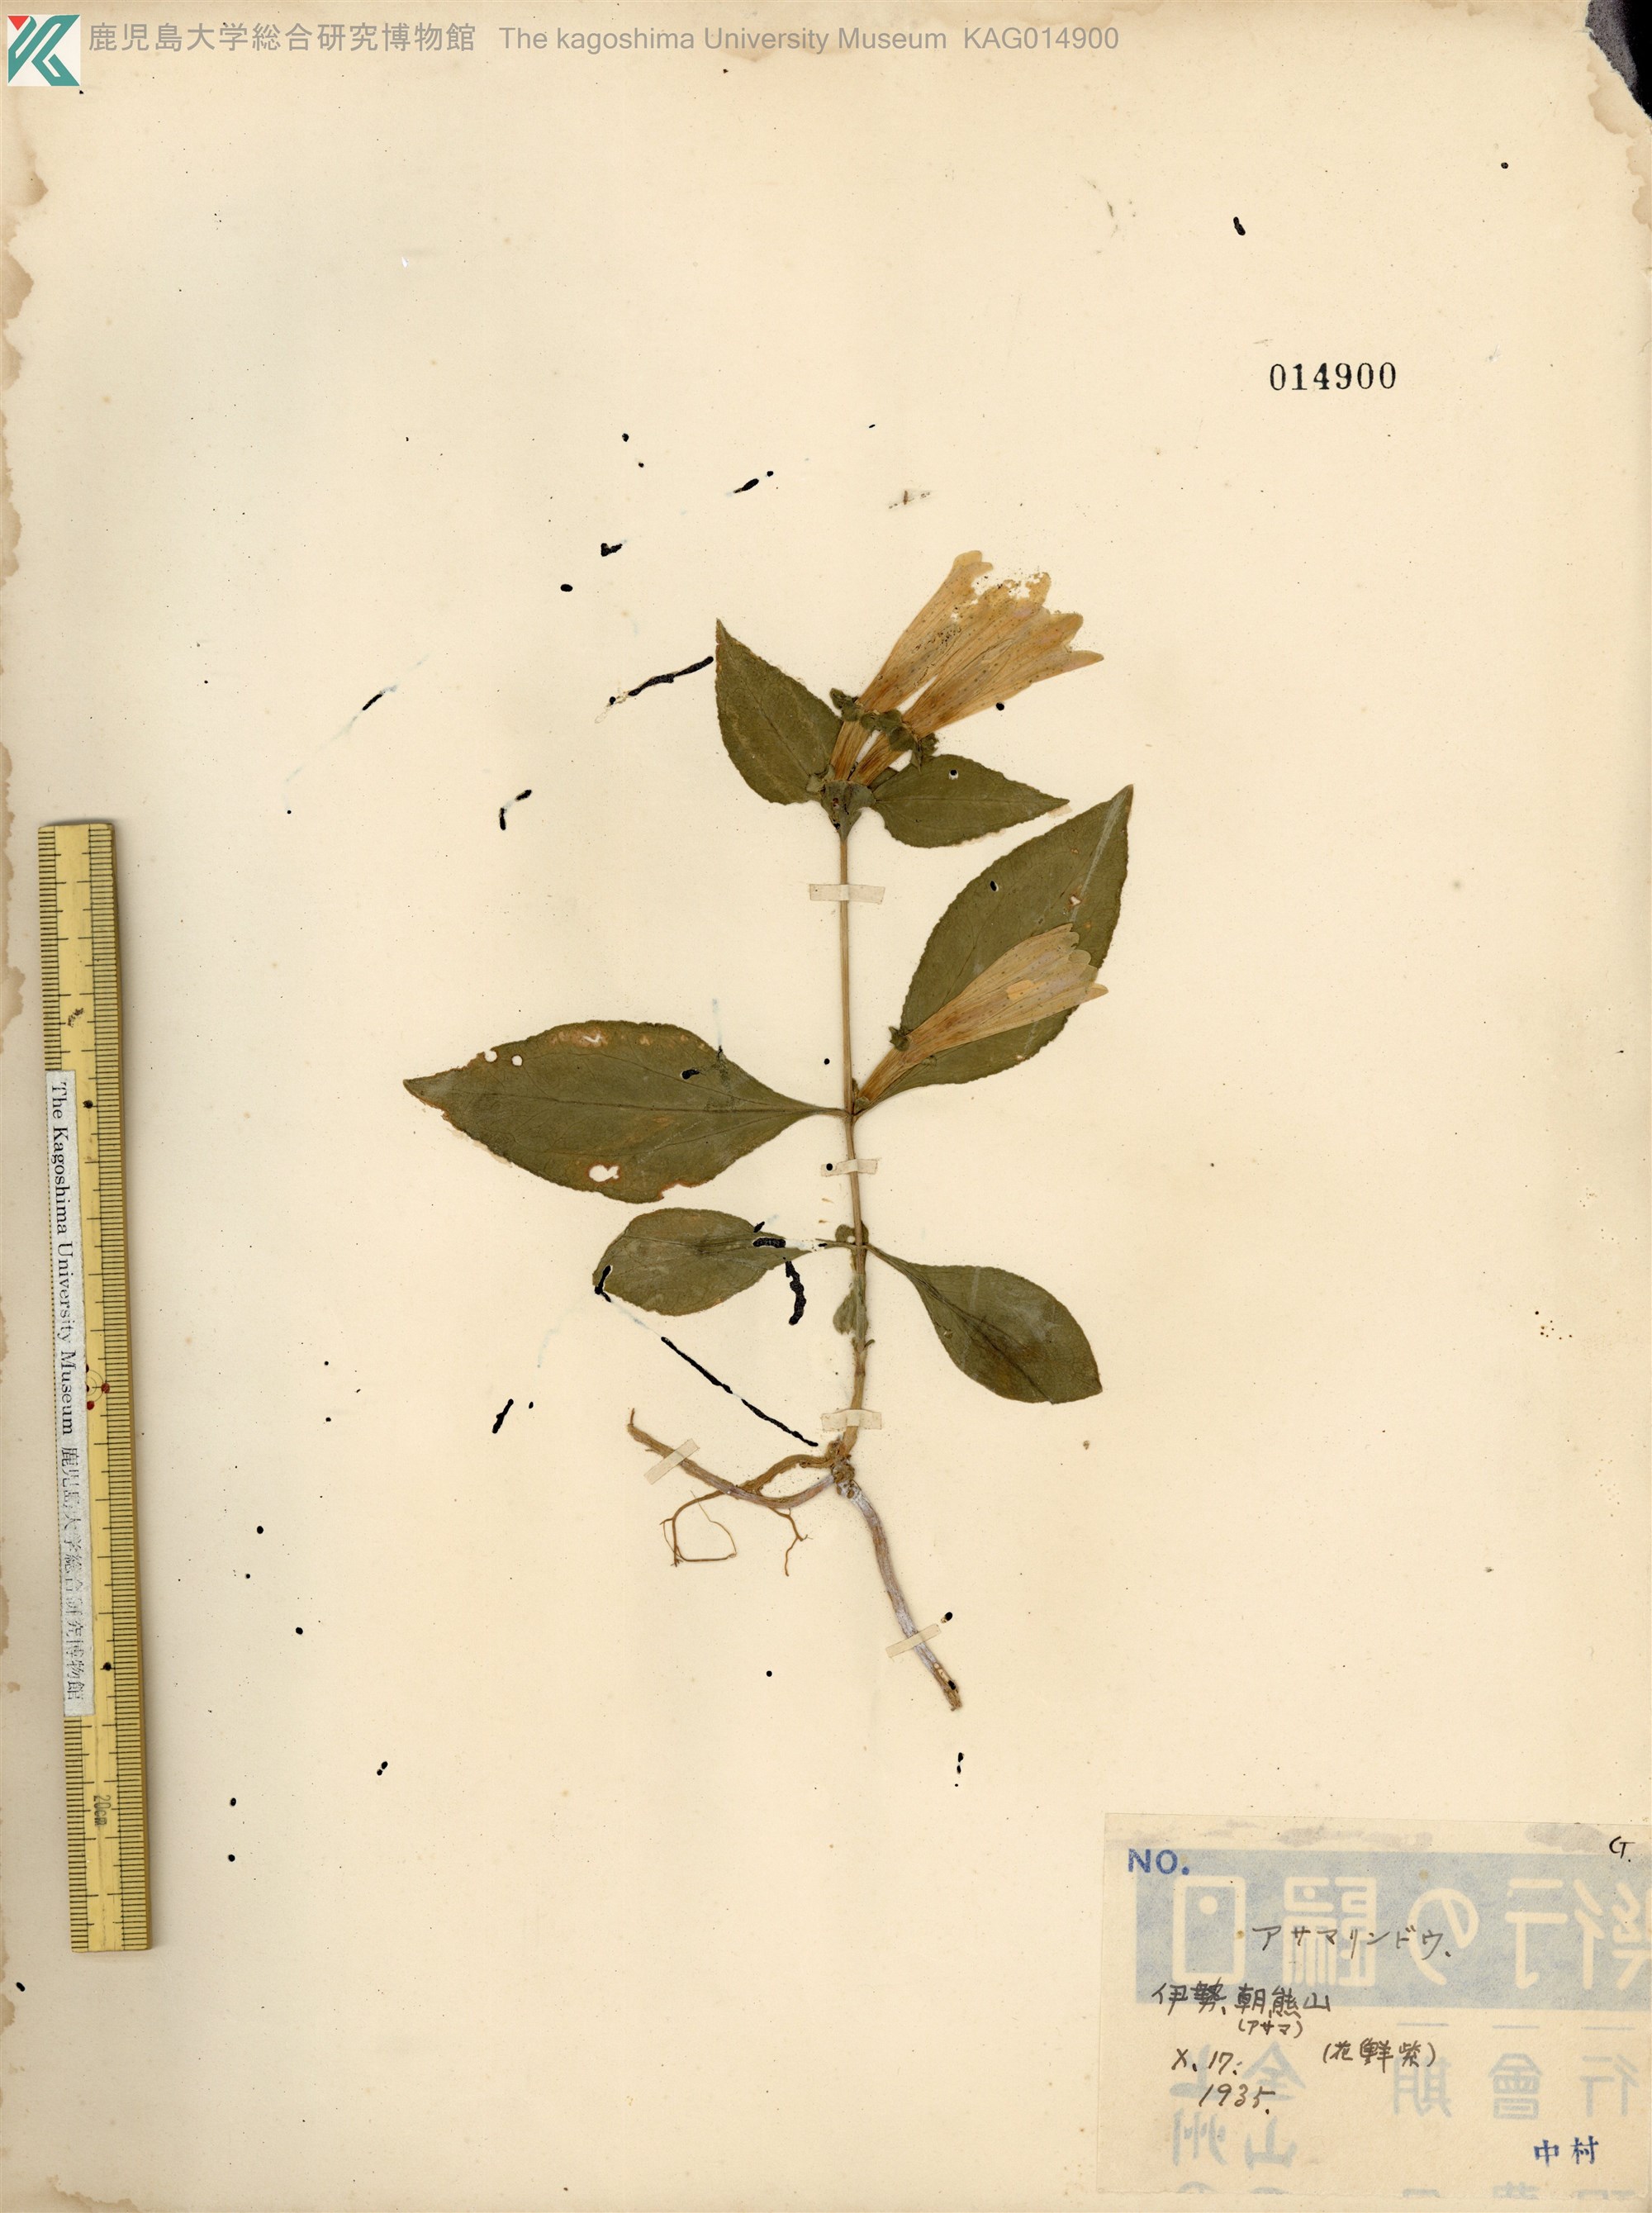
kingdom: Plantae
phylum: Tracheophyta
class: Magnoliopsida
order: Gentianales
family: Gentianaceae
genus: Gentiana
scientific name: Gentiana sikokiana
